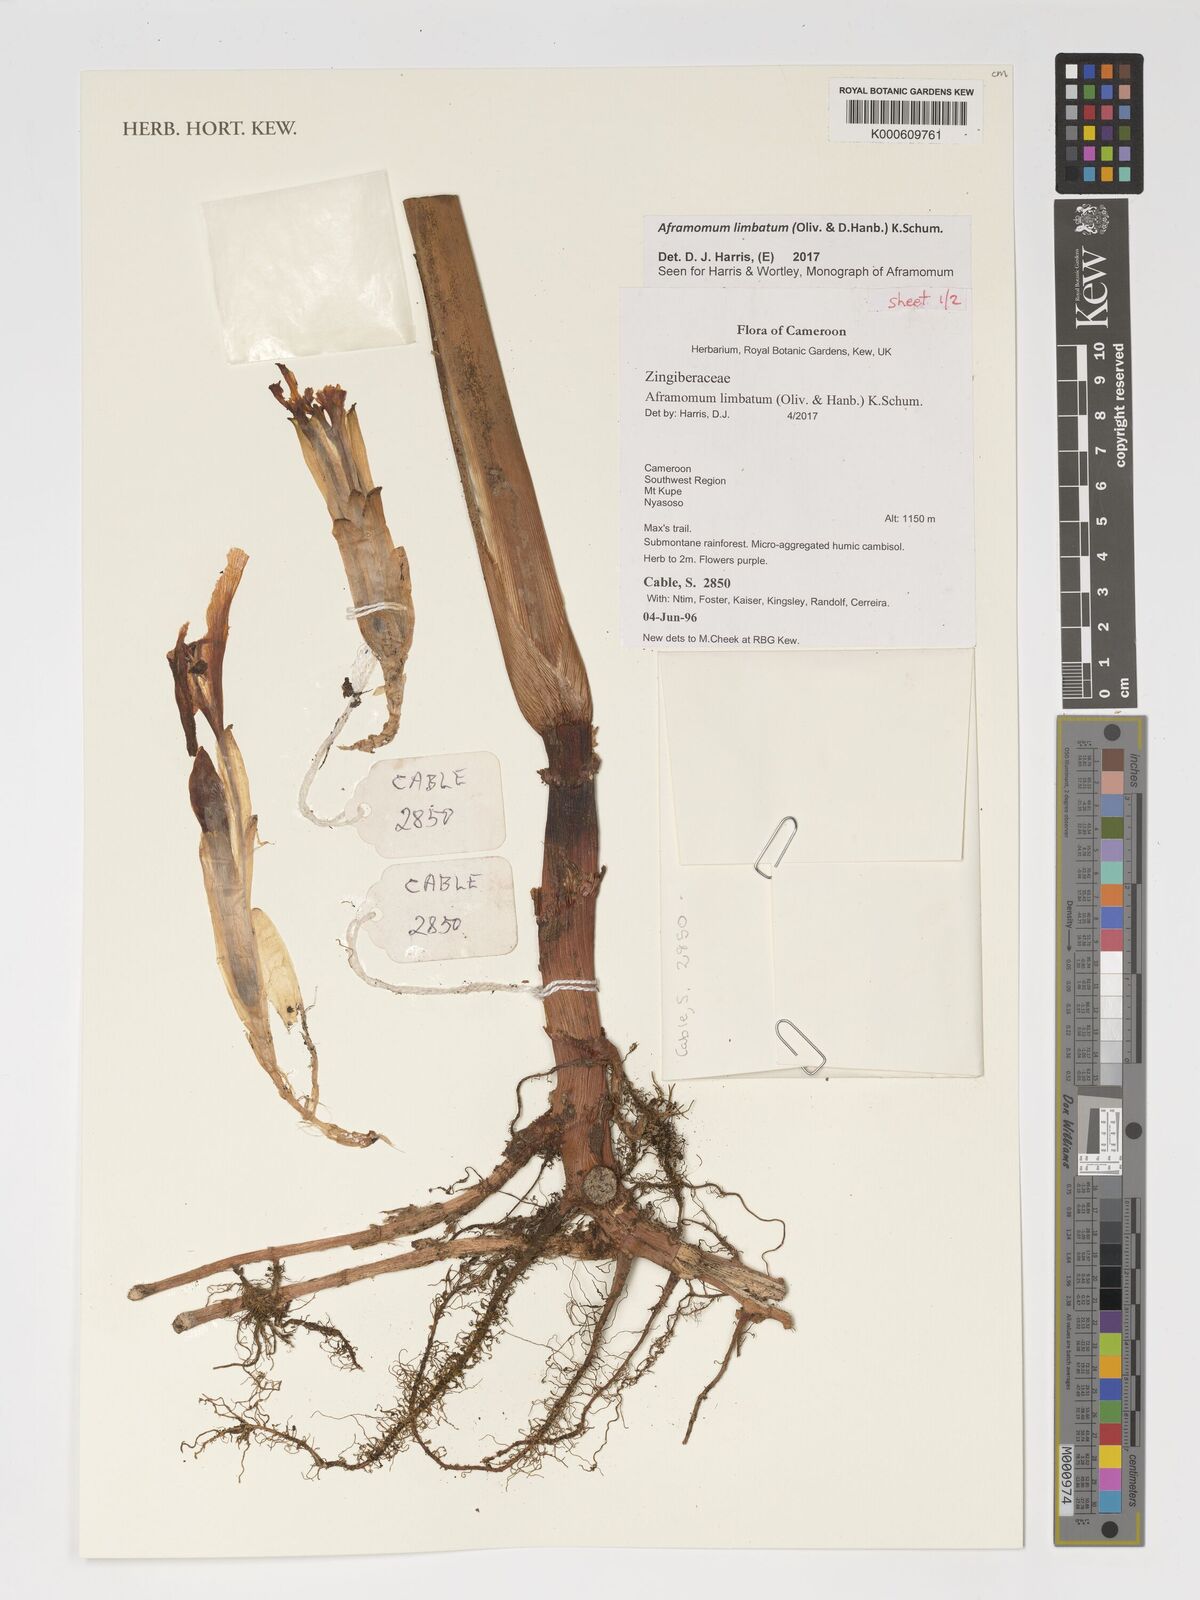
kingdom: Plantae
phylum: Tracheophyta
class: Liliopsida
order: Zingiberales
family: Zingiberaceae
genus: Aframomum
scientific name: Aframomum limbatum
